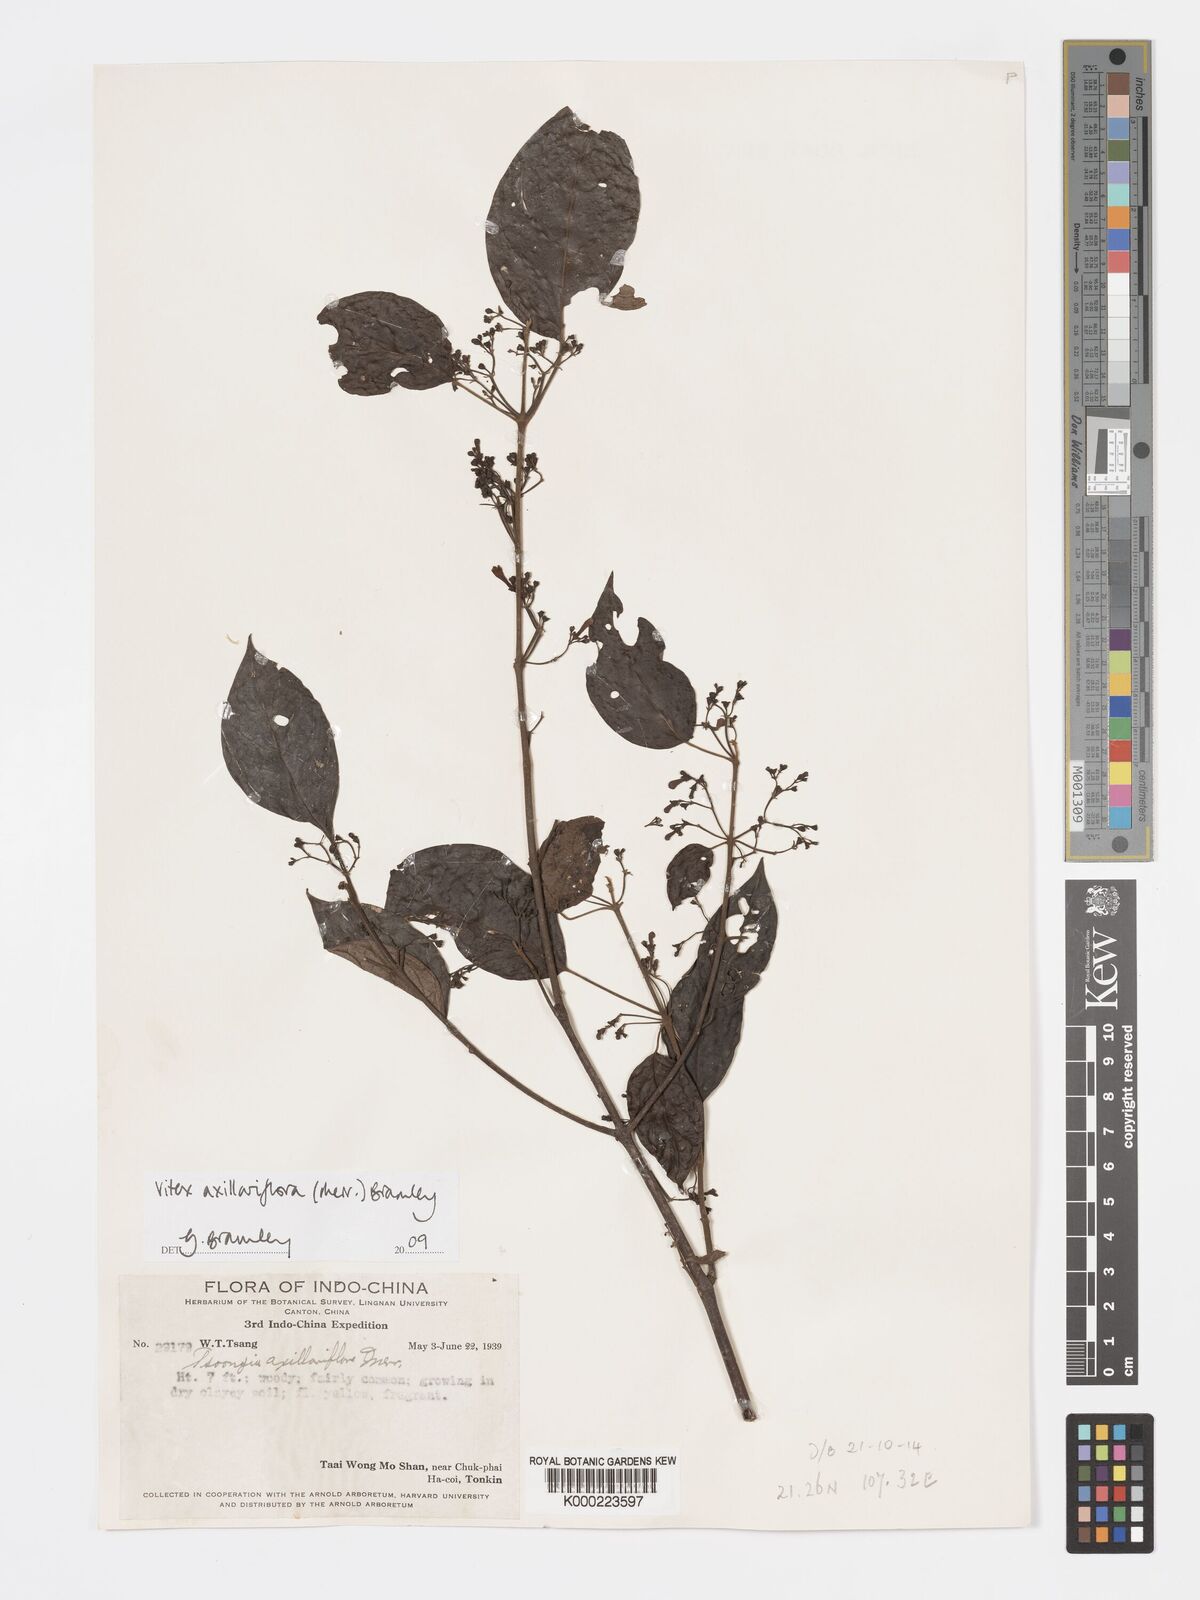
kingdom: Plantae
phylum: Tracheophyta
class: Magnoliopsida
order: Lamiales
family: Lamiaceae
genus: Vitex
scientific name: Vitex axillariflora
